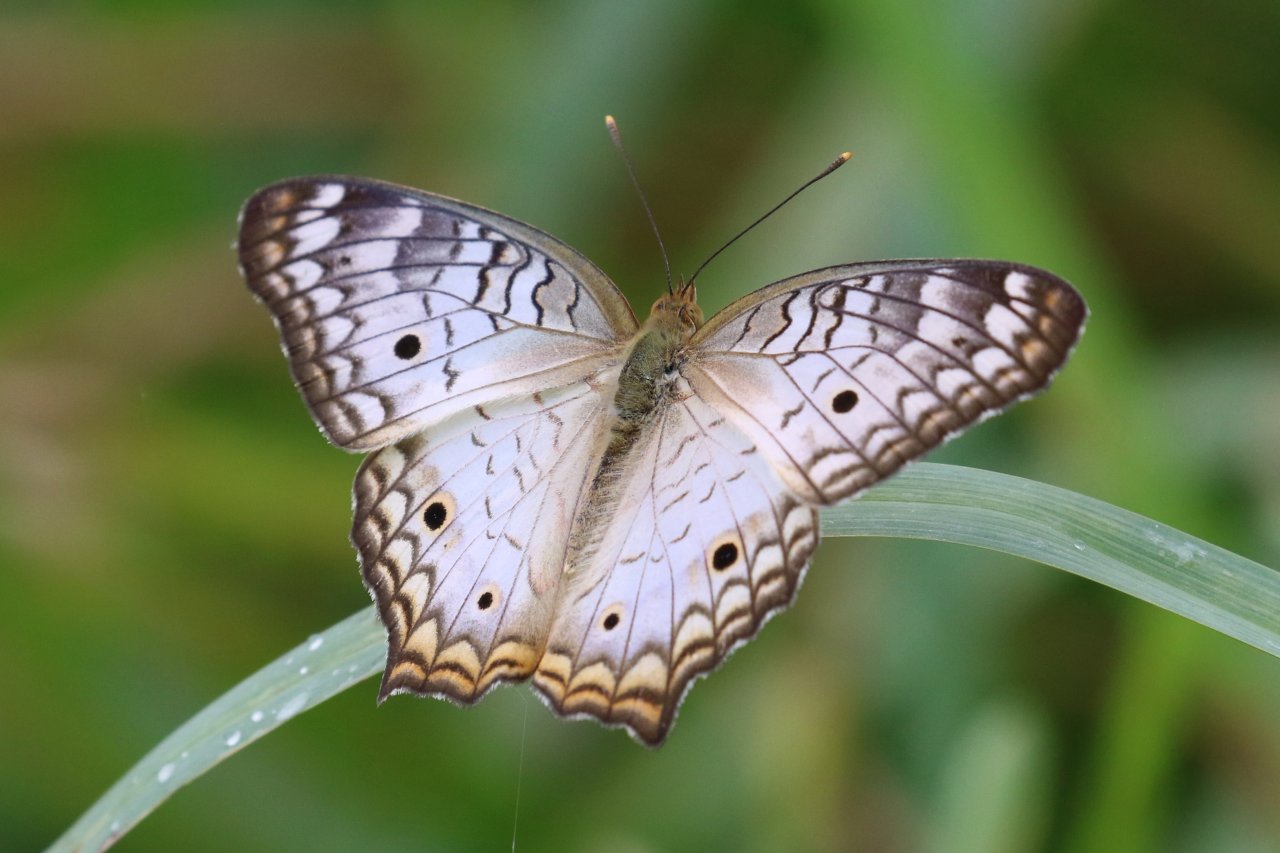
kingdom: Animalia
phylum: Arthropoda
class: Insecta
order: Lepidoptera
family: Nymphalidae
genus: Anartia
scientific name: Anartia jatrophae
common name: White Peacock
